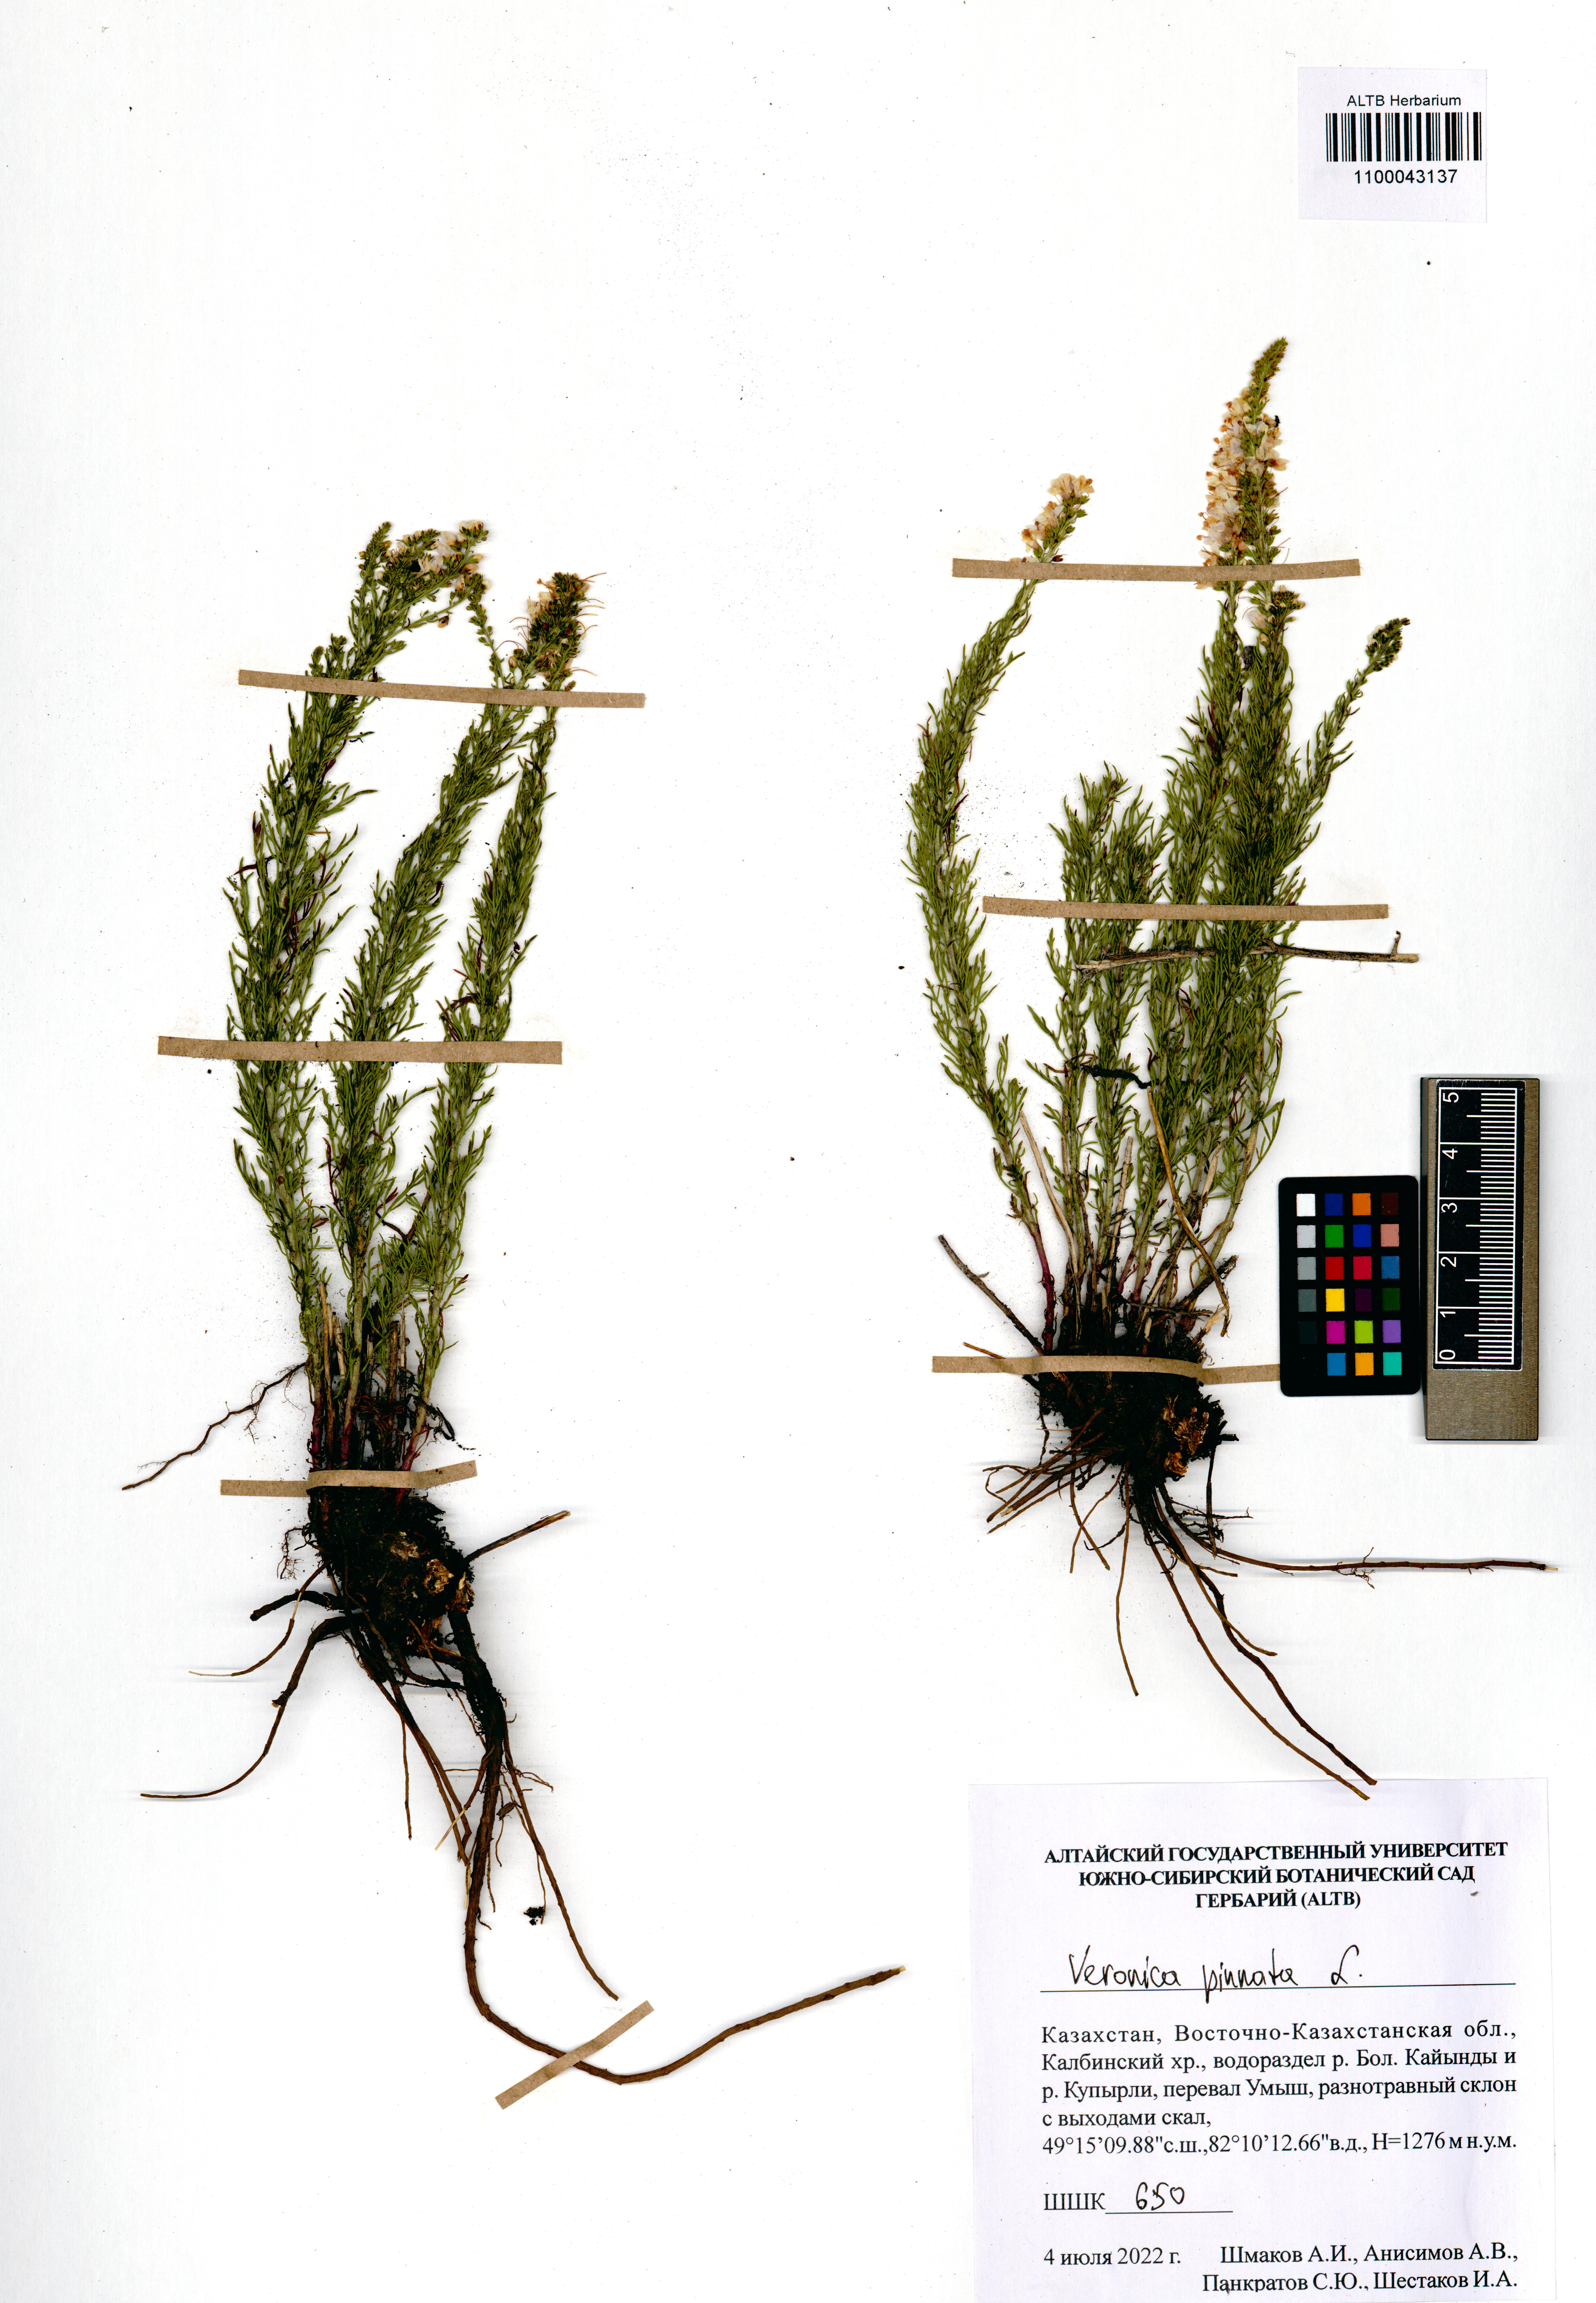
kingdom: Plantae
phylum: Tracheophyta
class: Magnoliopsida
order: Lamiales
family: Plantaginaceae
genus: Veronica
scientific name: Veronica pinnata
